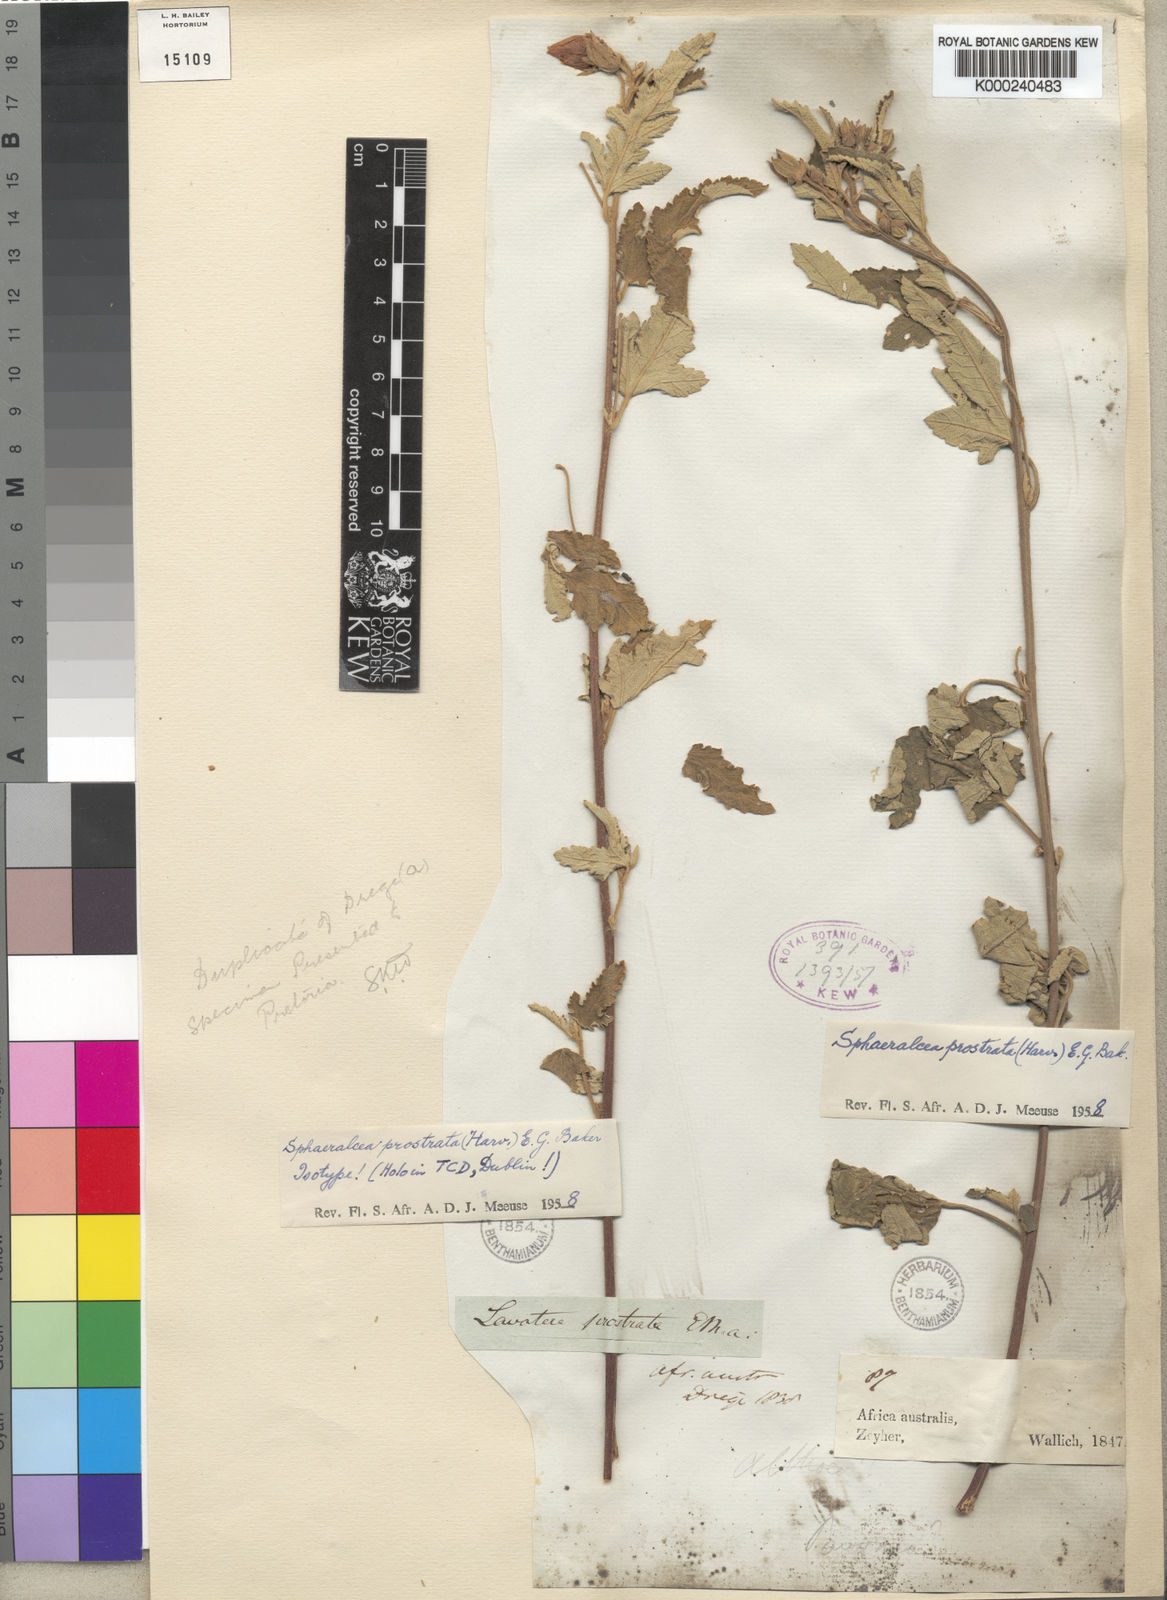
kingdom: Plantae
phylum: Tracheophyta
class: Magnoliopsida
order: Malvales
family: Malvaceae
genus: Sphaeralcea
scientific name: Sphaeralcea
